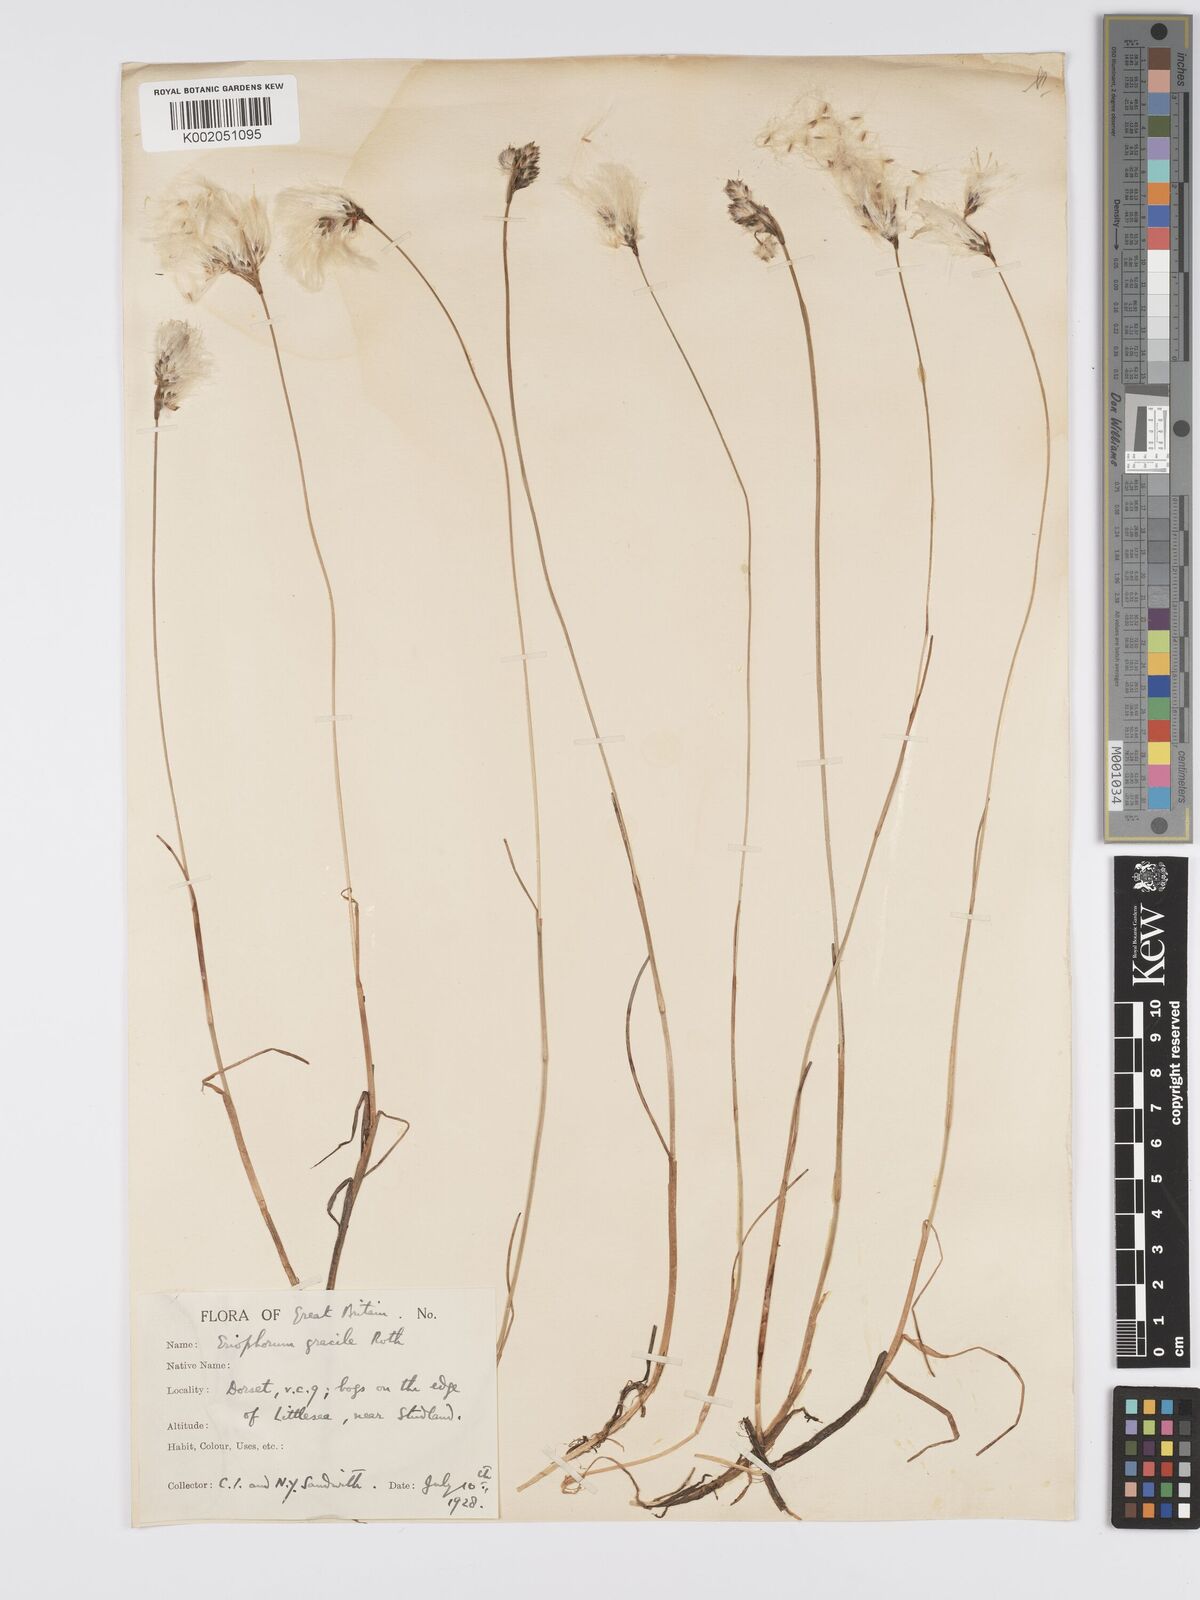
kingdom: Plantae
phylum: Tracheophyta
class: Liliopsida
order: Poales
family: Cyperaceae
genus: Eriophorum
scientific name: Eriophorum gracile
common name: Slender cottongrass
